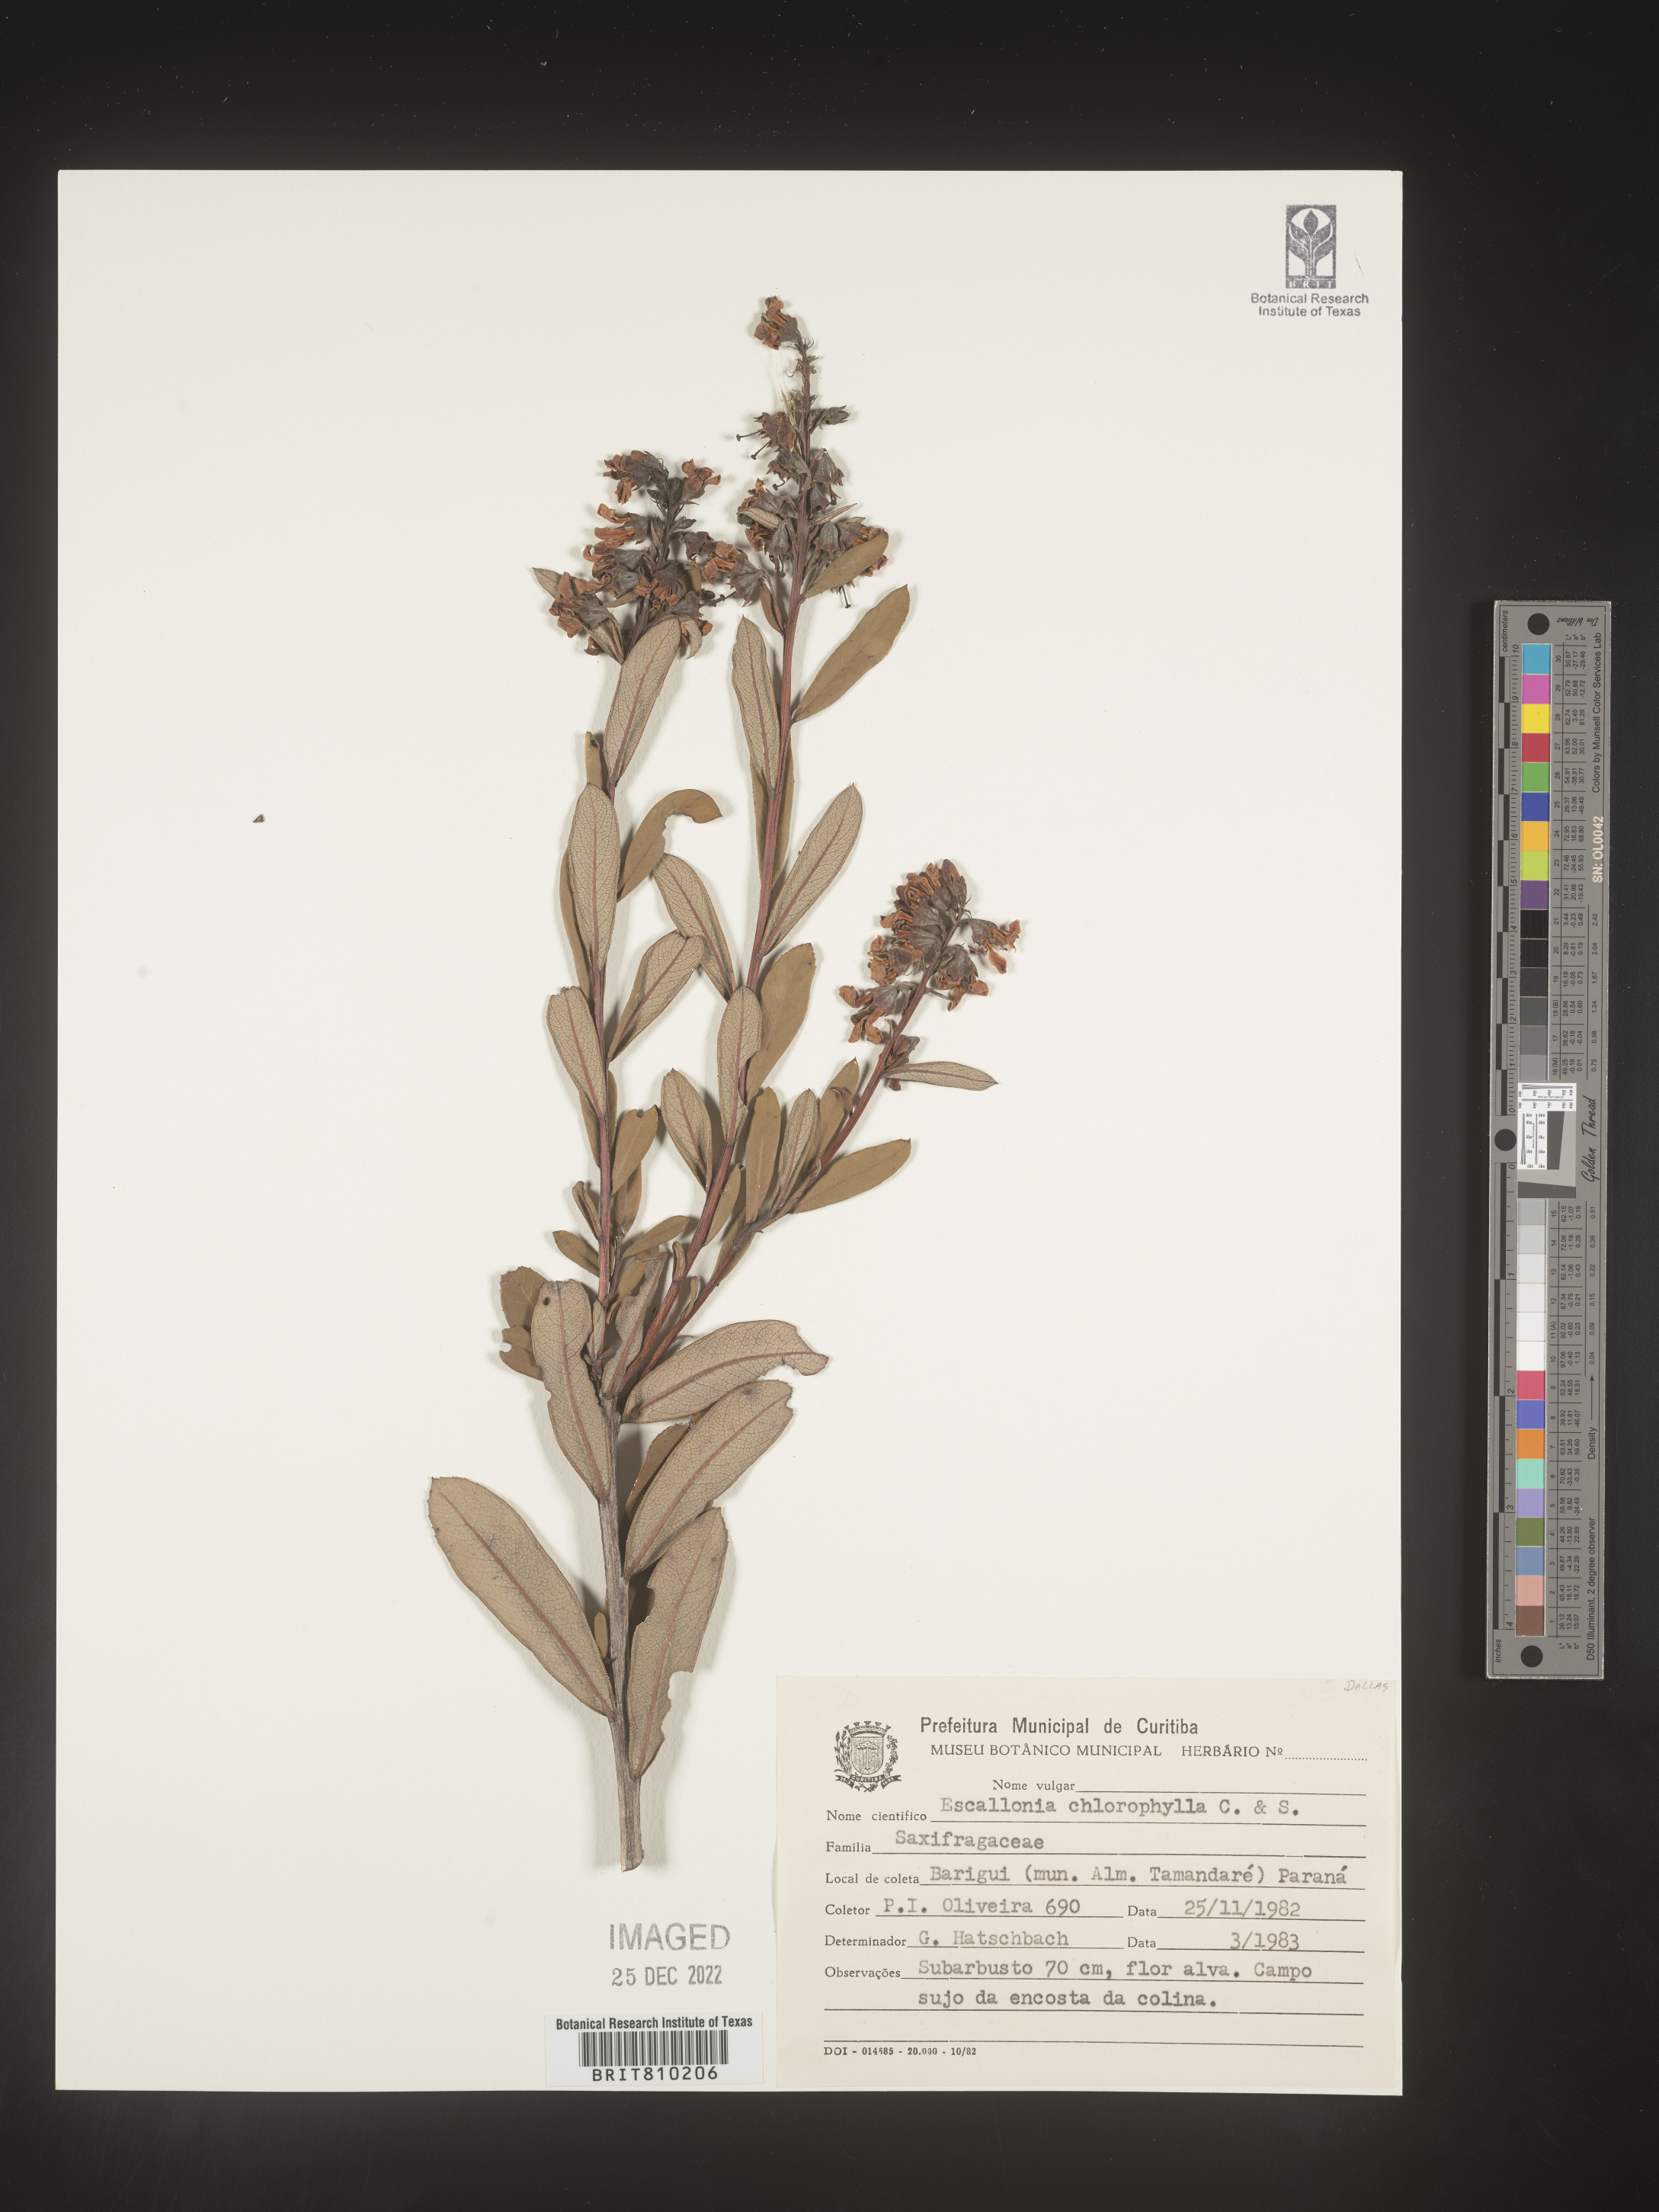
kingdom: Plantae
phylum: Tracheophyta
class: Magnoliopsida
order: Escalloniales
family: Escalloniaceae
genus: Escallonia
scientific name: Escallonia
